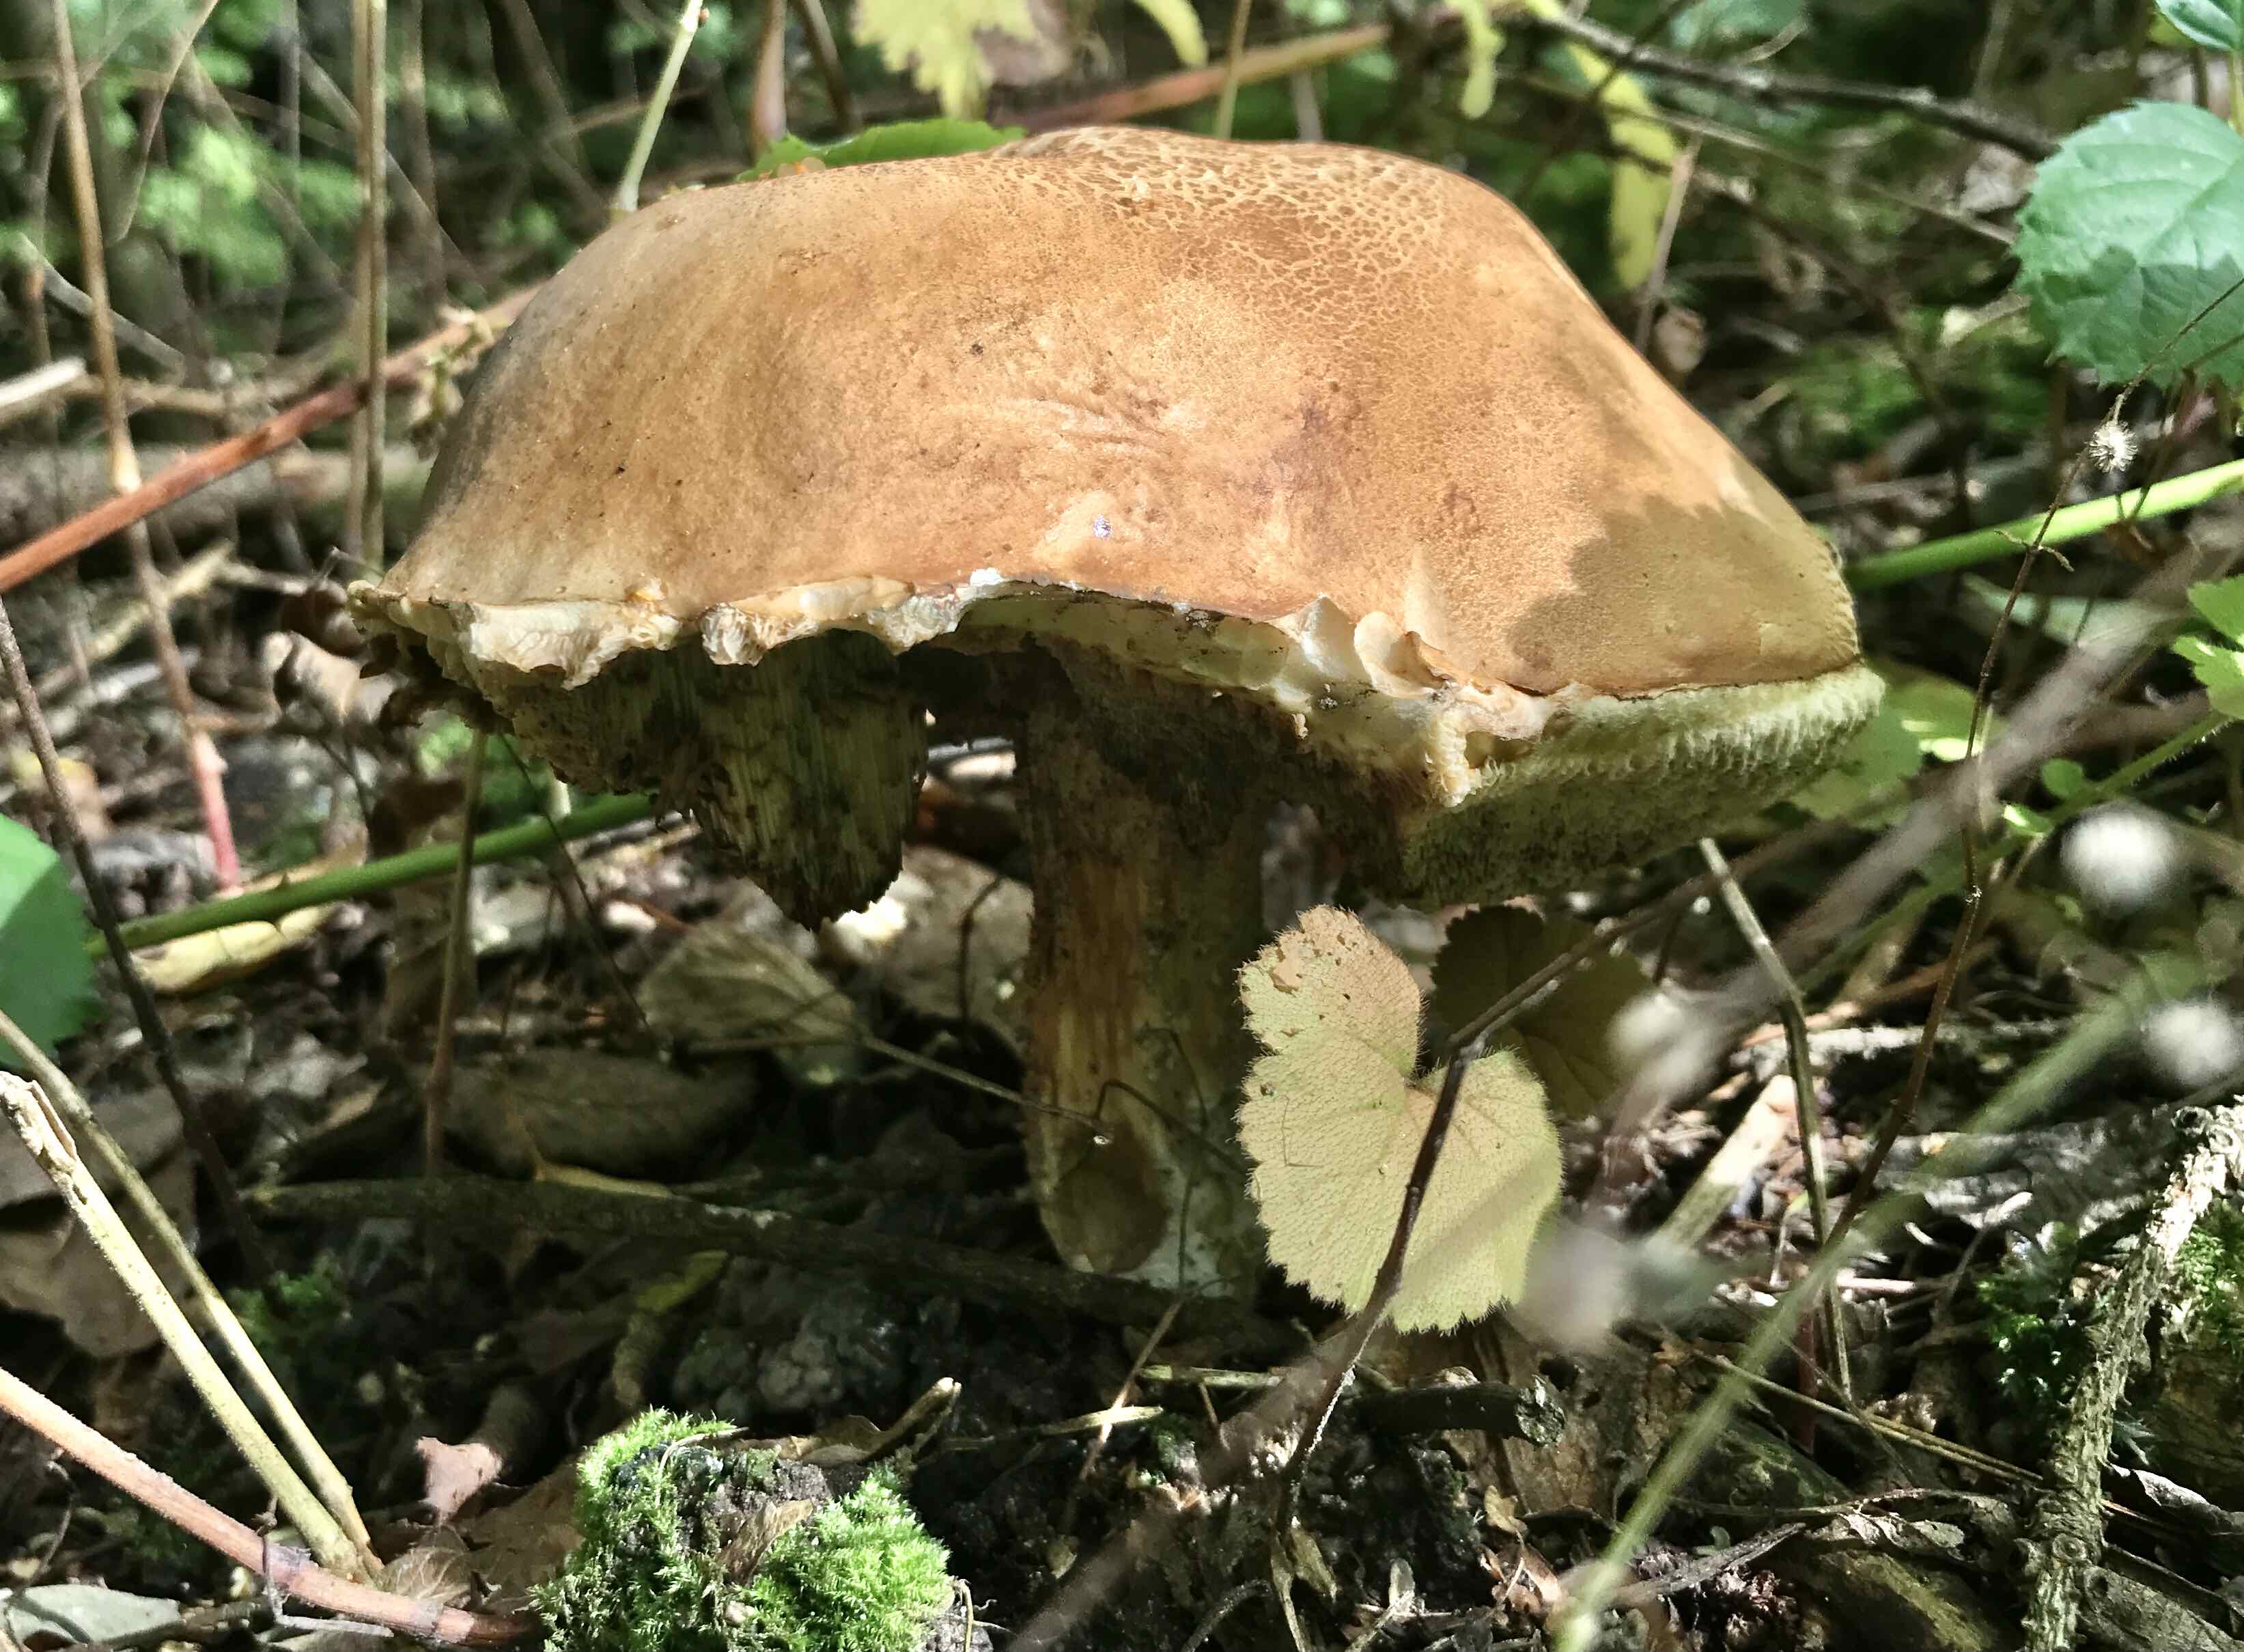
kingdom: Fungi
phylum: Basidiomycota
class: Agaricomycetes
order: Boletales
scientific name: Boletales
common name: rørhatordenen
